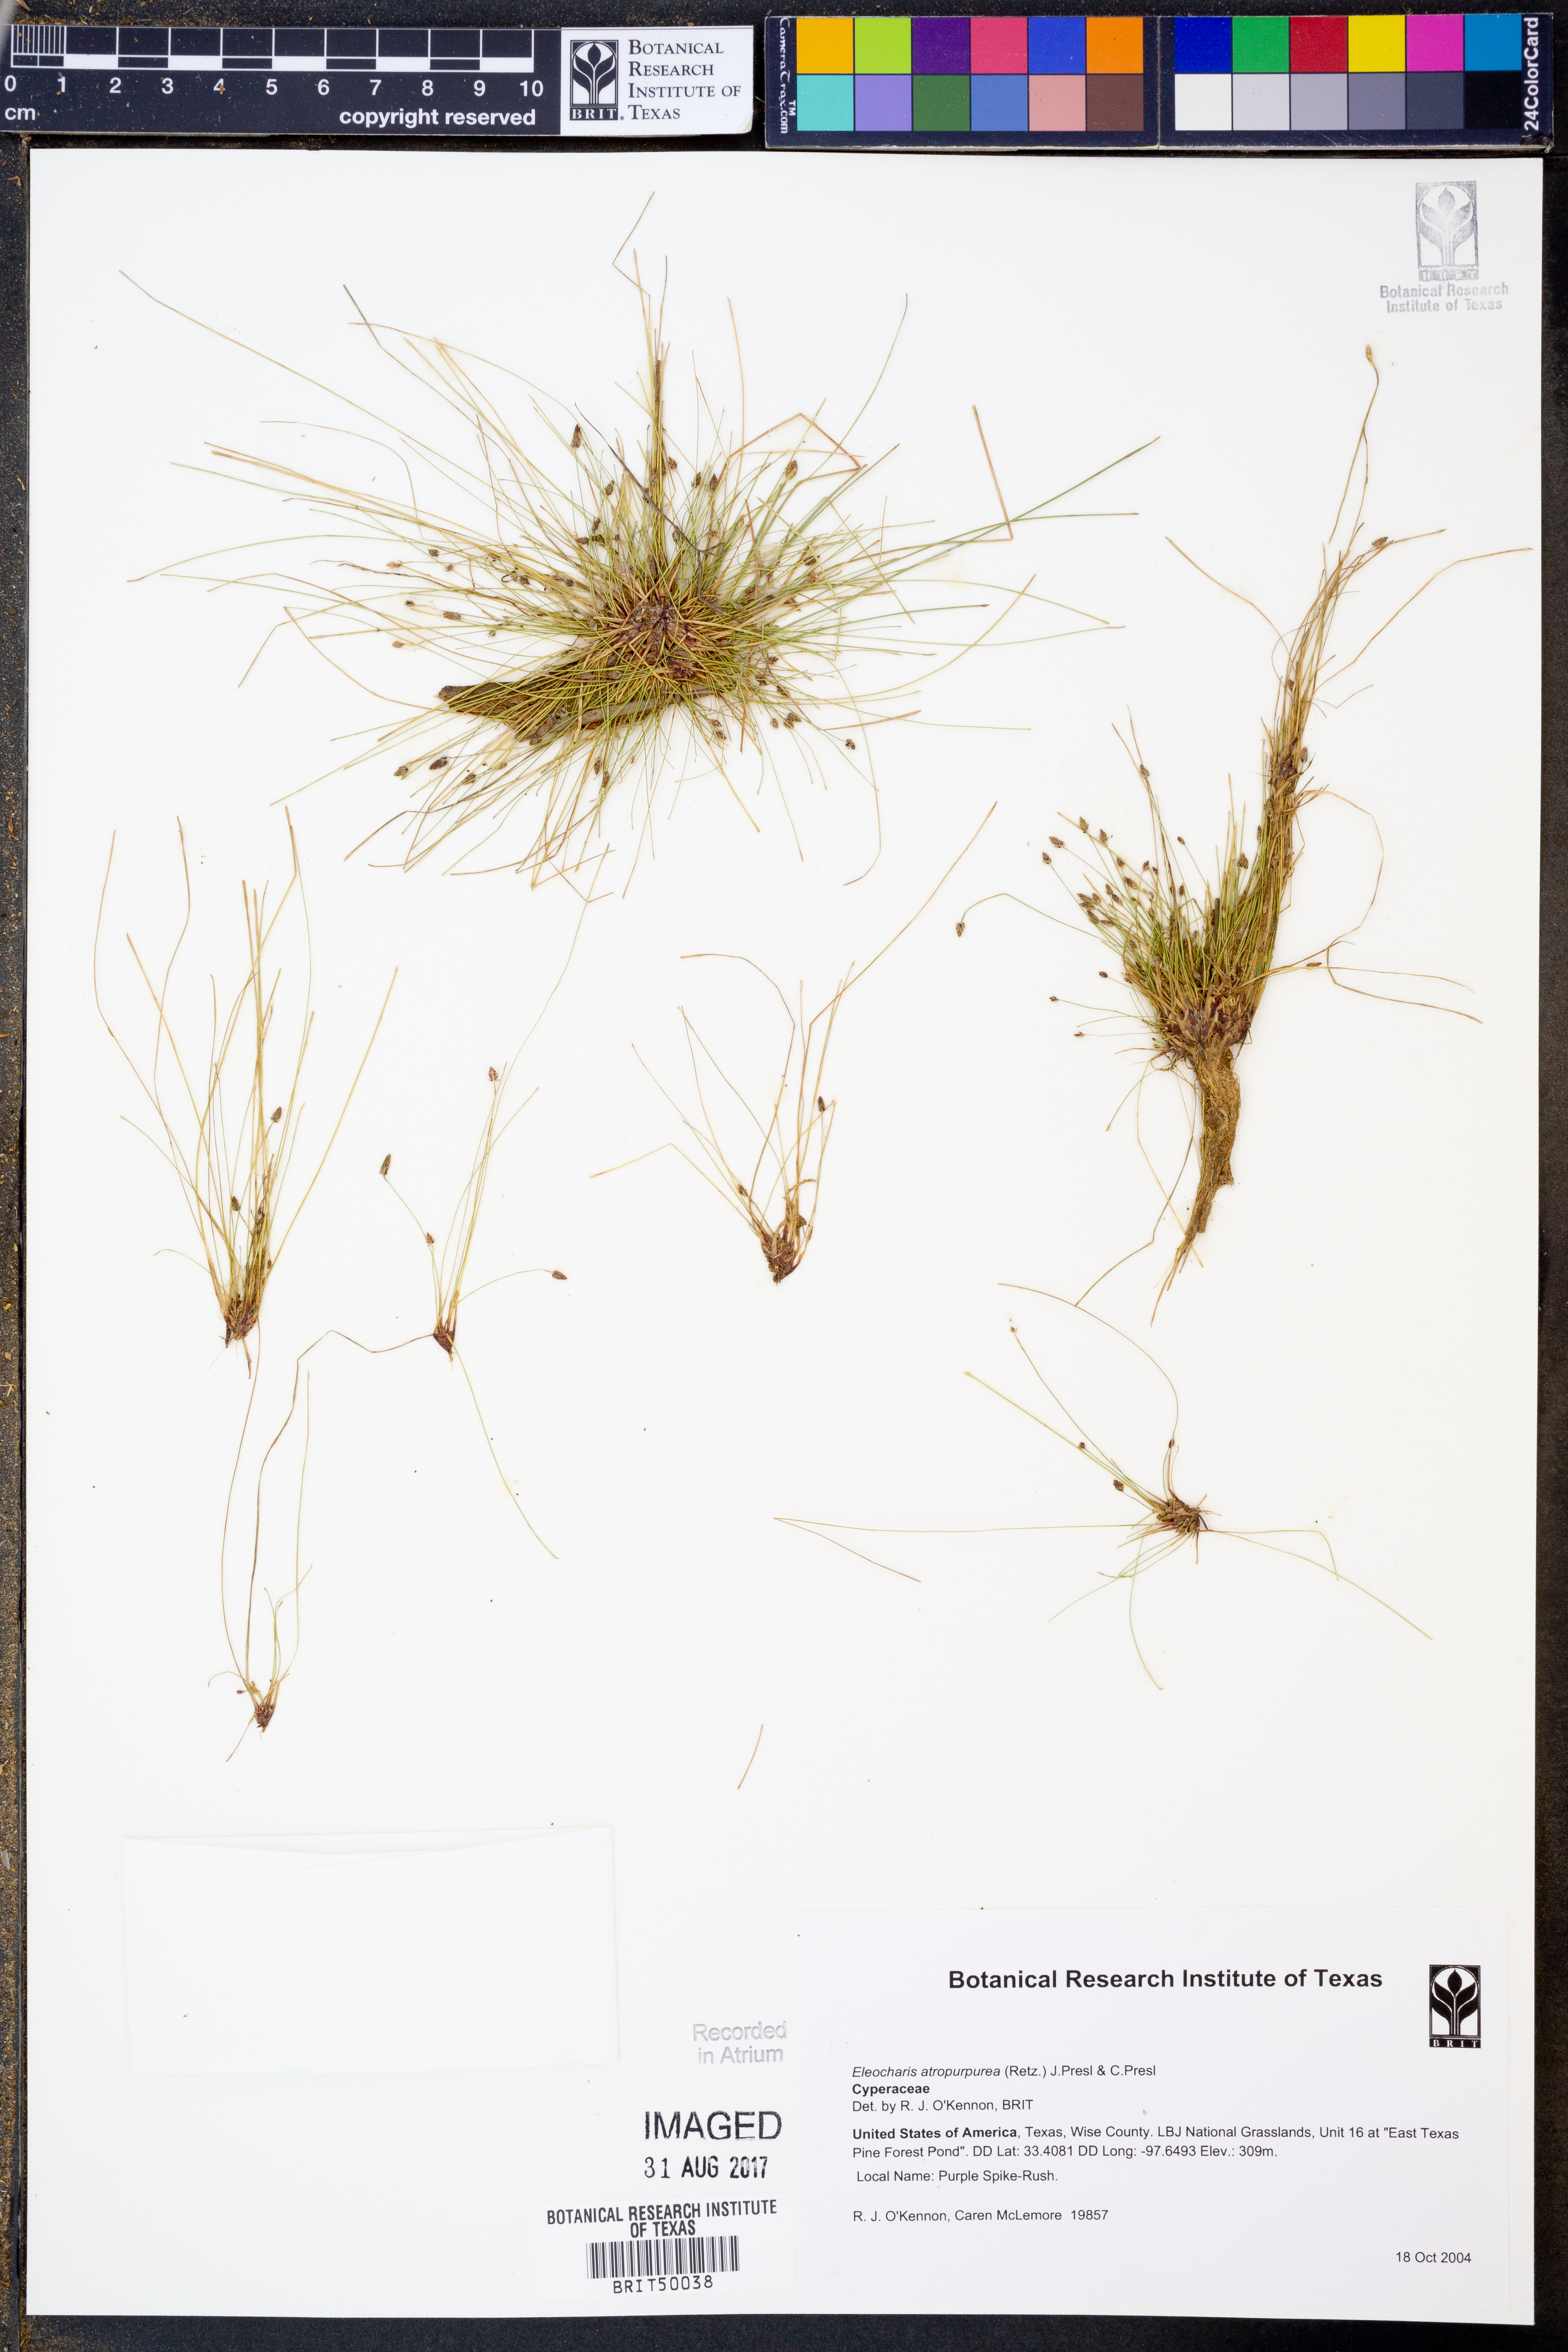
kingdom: Plantae
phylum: Tracheophyta
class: Liliopsida
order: Poales
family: Cyperaceae
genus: Eleocharis
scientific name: Eleocharis atropurpurea
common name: Purple spikerush
